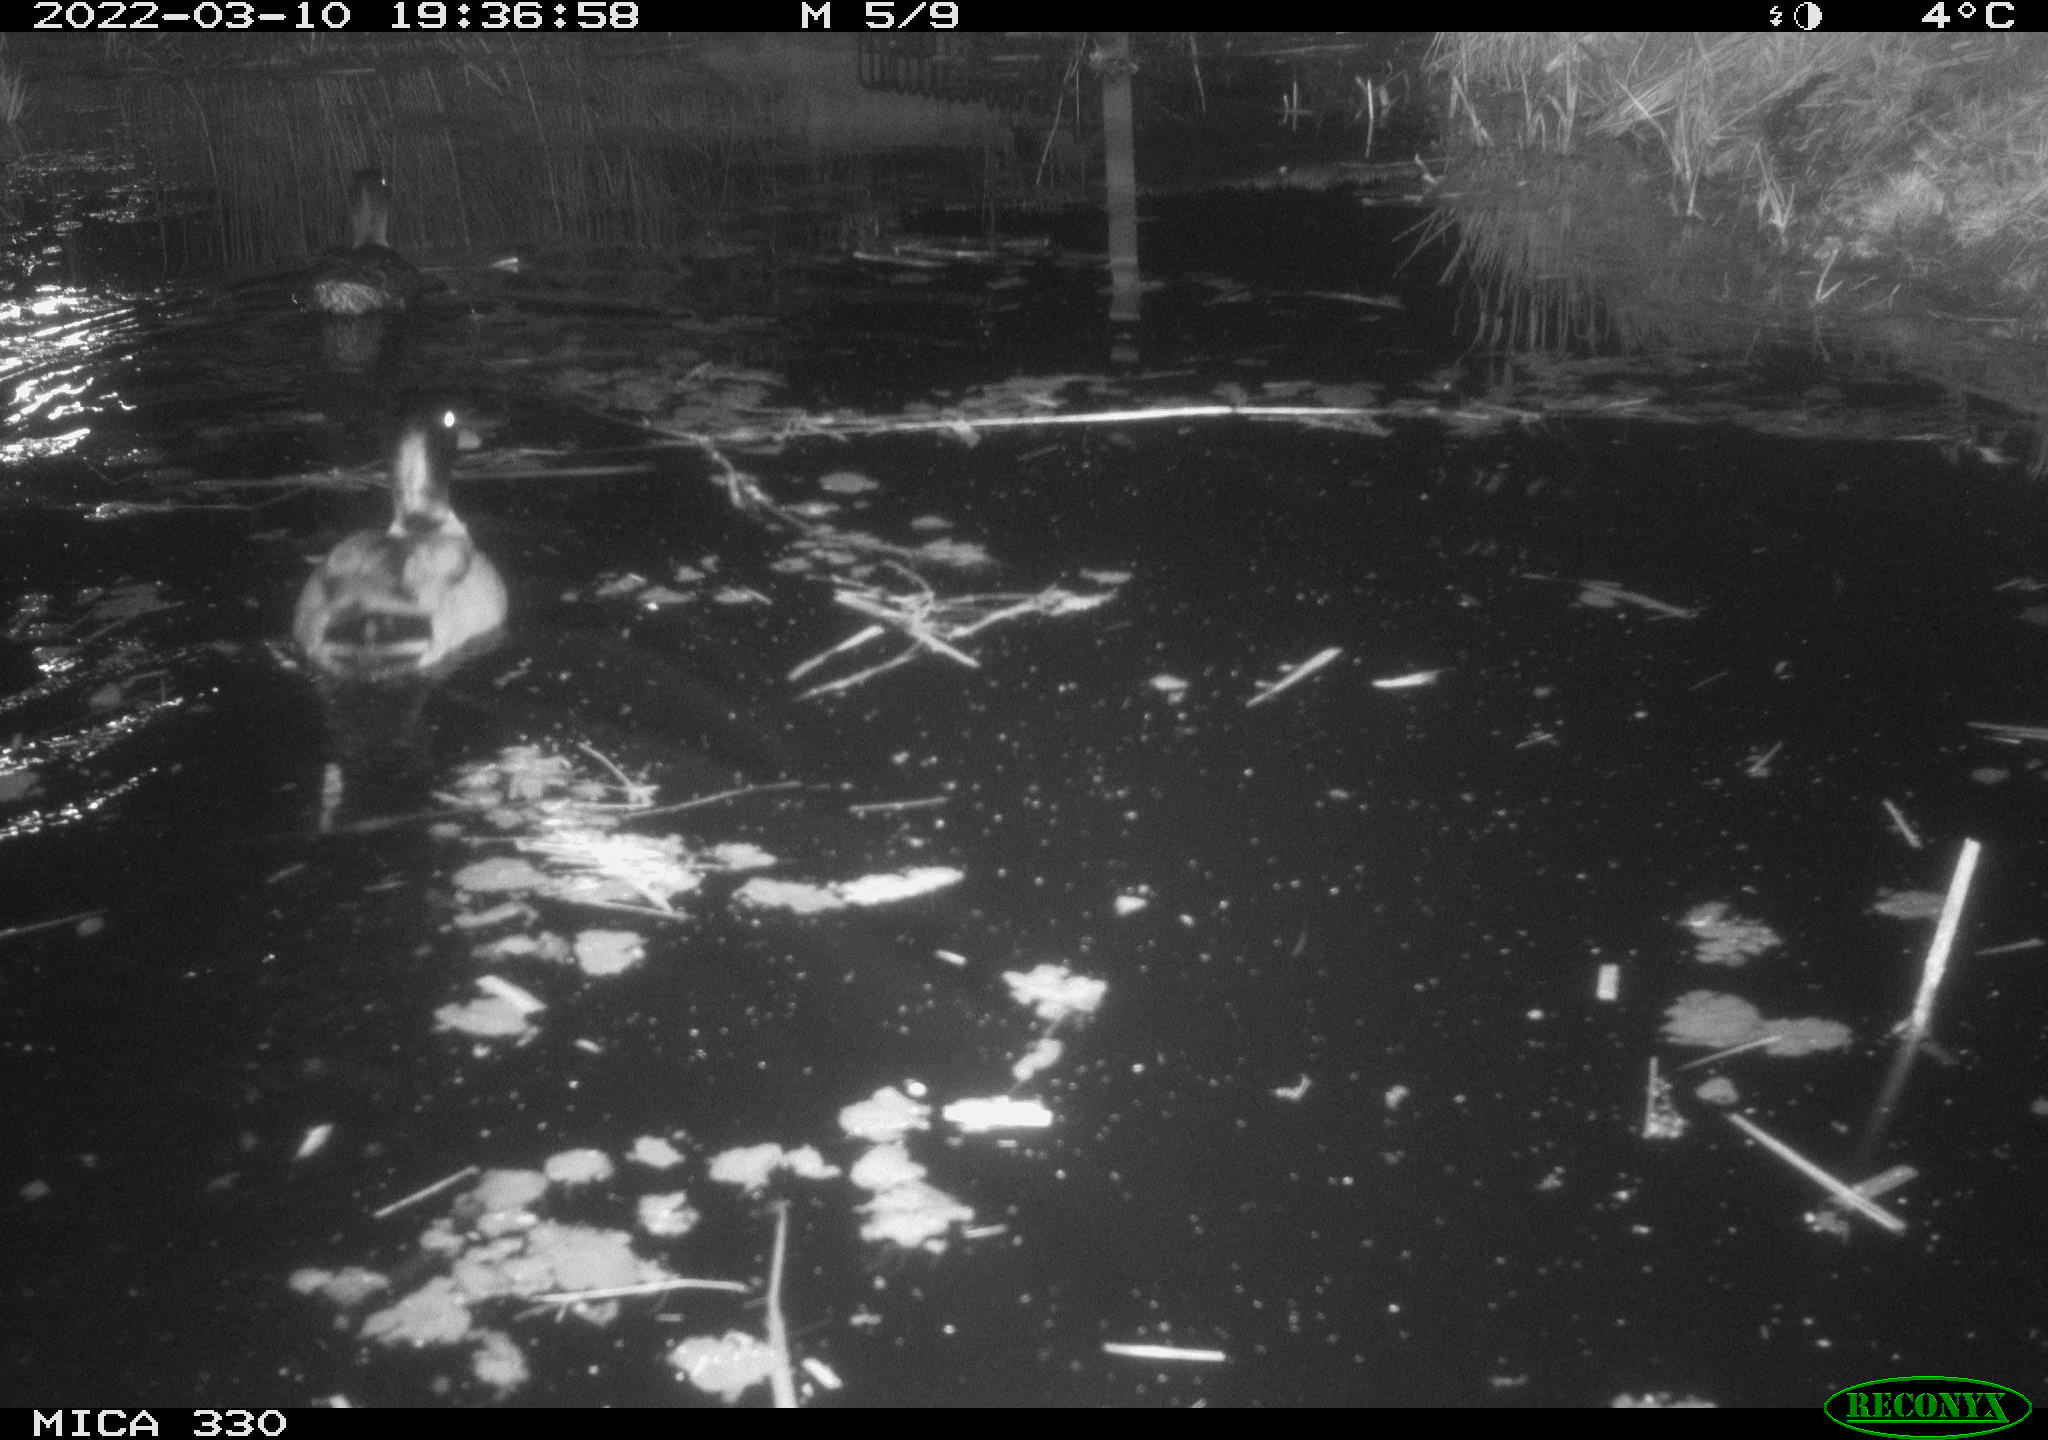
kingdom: Animalia
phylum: Chordata
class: Aves
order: Gruiformes
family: Rallidae
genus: Gallinula
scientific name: Gallinula chloropus
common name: Common moorhen
